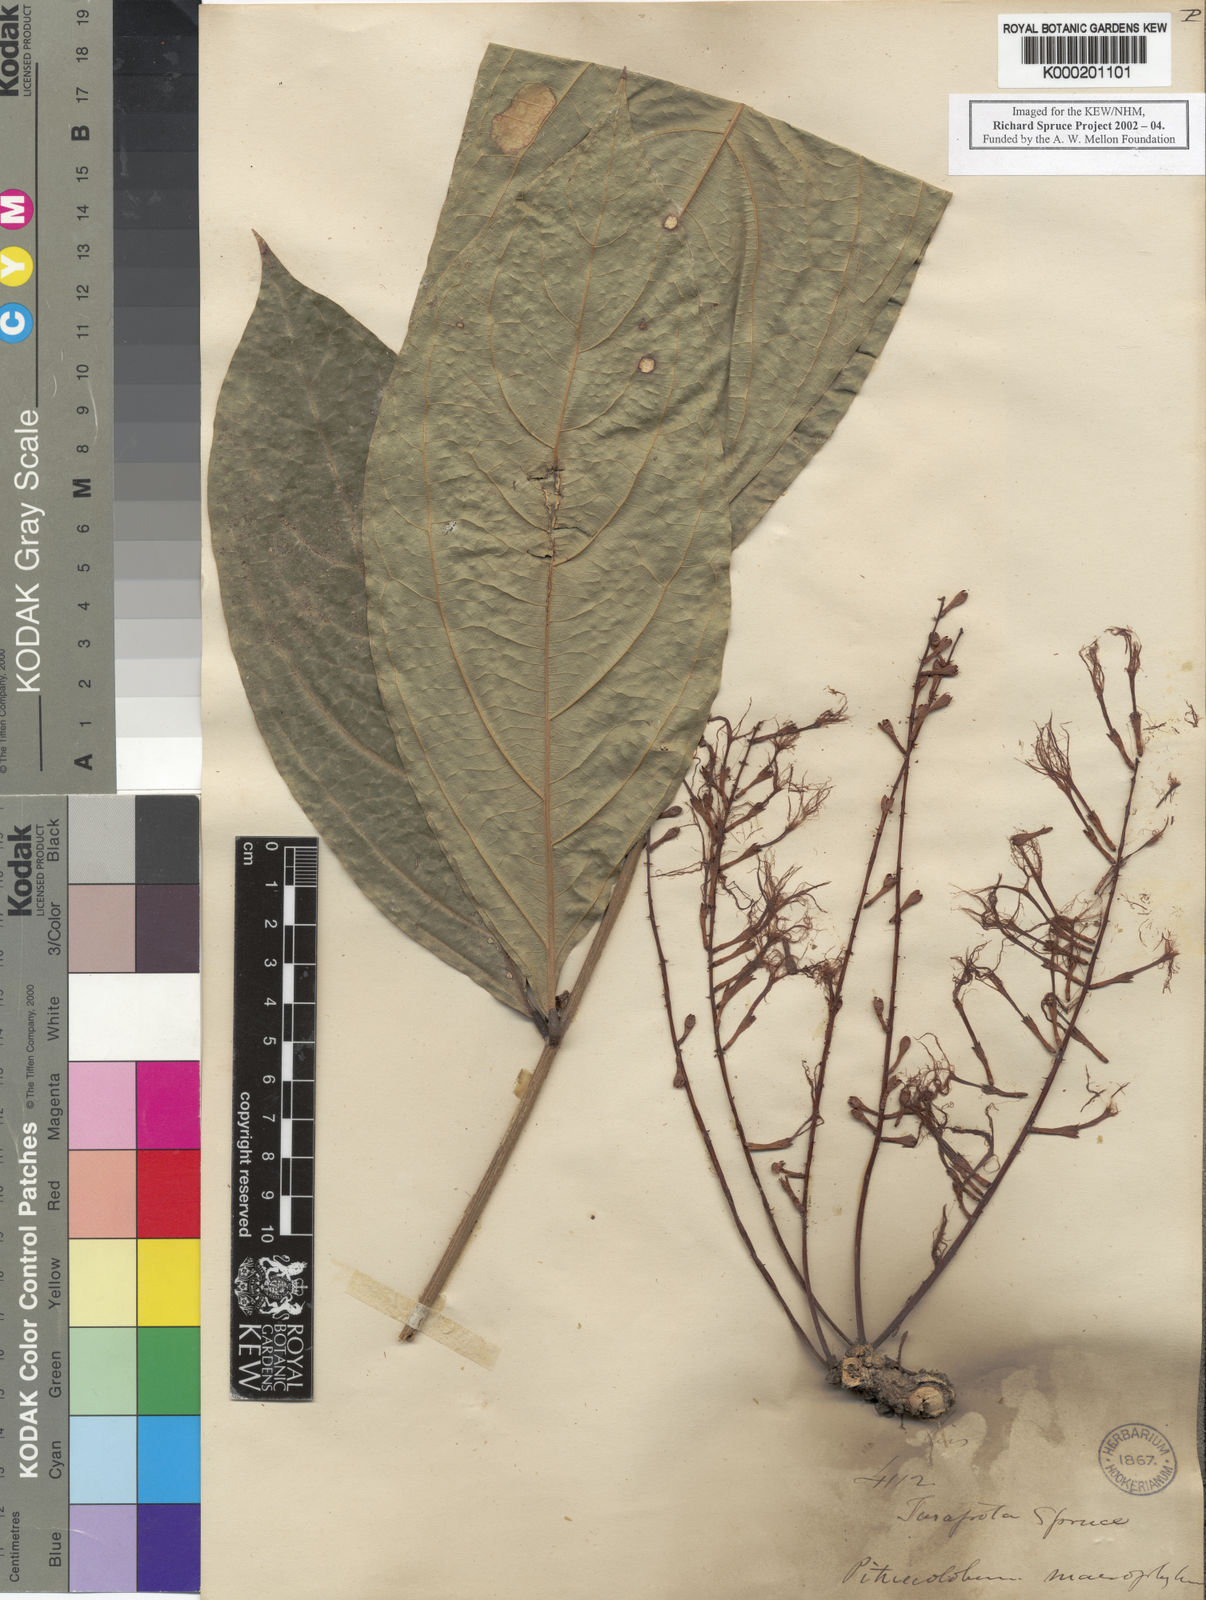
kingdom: Plantae
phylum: Tracheophyta
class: Magnoliopsida
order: Fabales
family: Fabaceae
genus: Zygia
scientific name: Zygia coccinea
